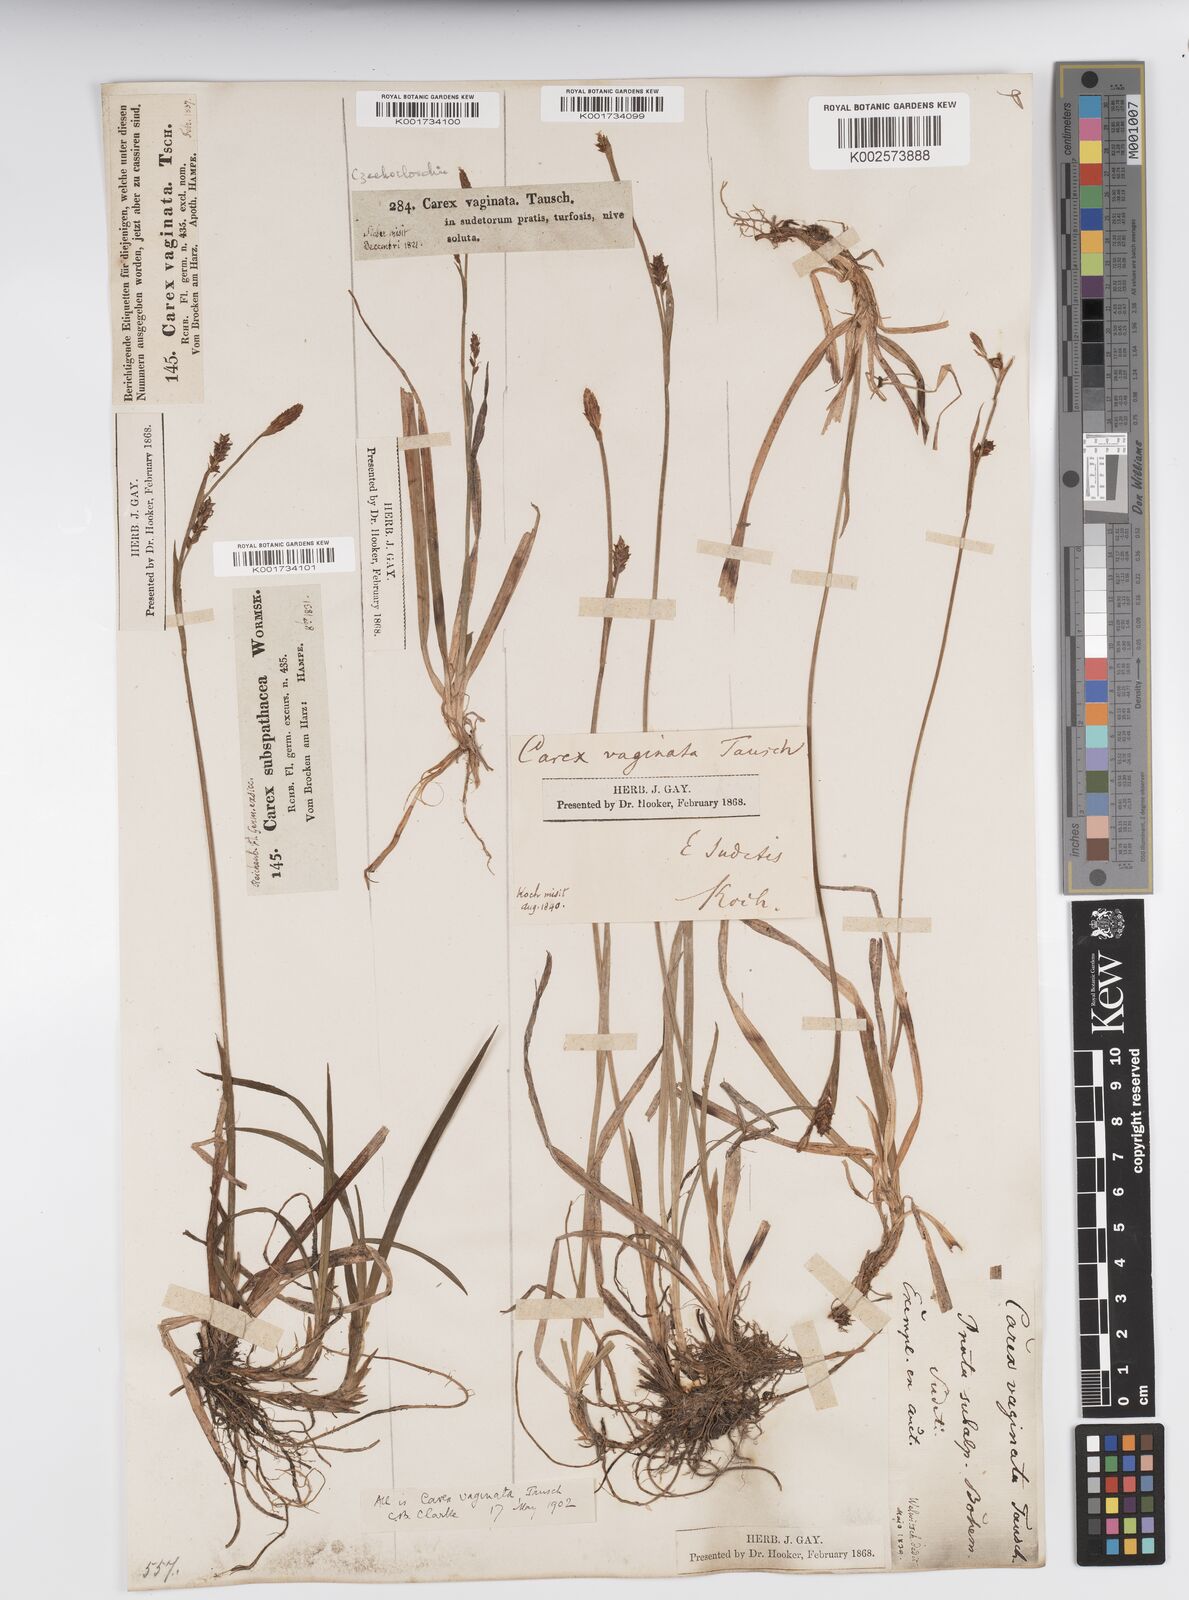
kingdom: Plantae
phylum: Tracheophyta
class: Liliopsida
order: Poales
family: Cyperaceae
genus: Carex
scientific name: Carex vaginata
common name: Sheathed sedge
